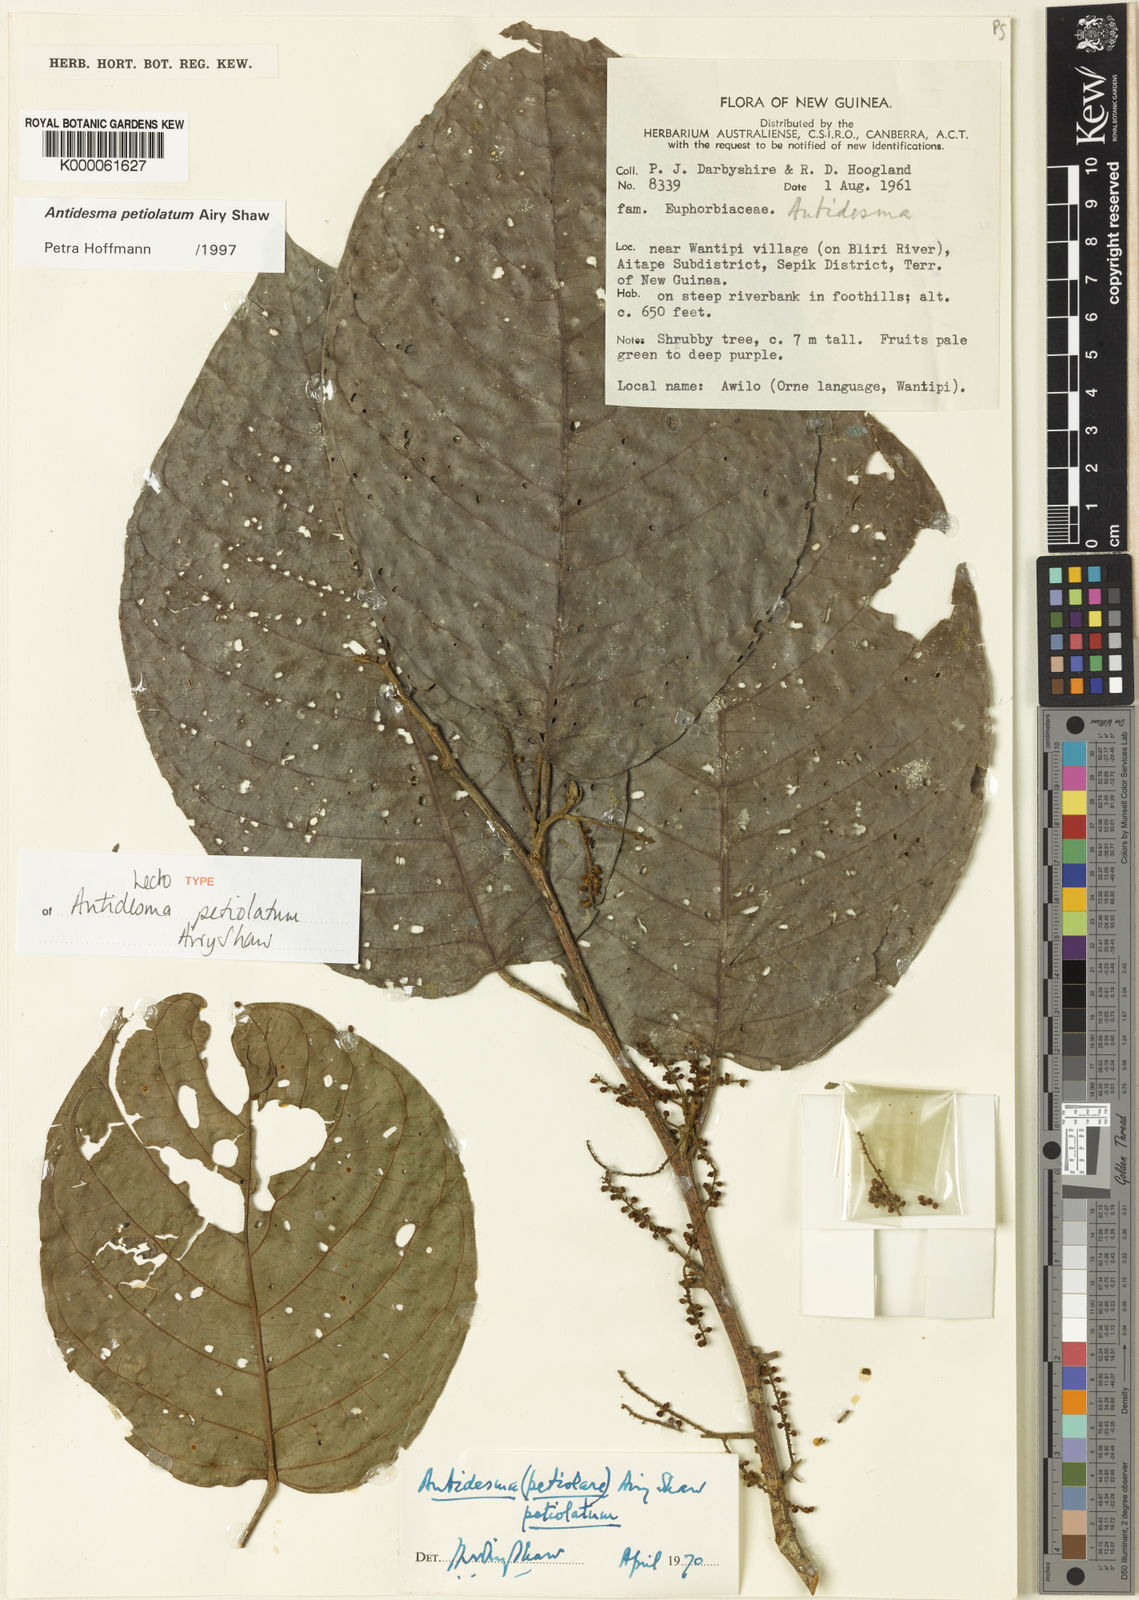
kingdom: Plantae
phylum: Tracheophyta
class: Magnoliopsida
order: Malpighiales
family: Phyllanthaceae
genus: Antidesma
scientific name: Antidesma petiolatum
